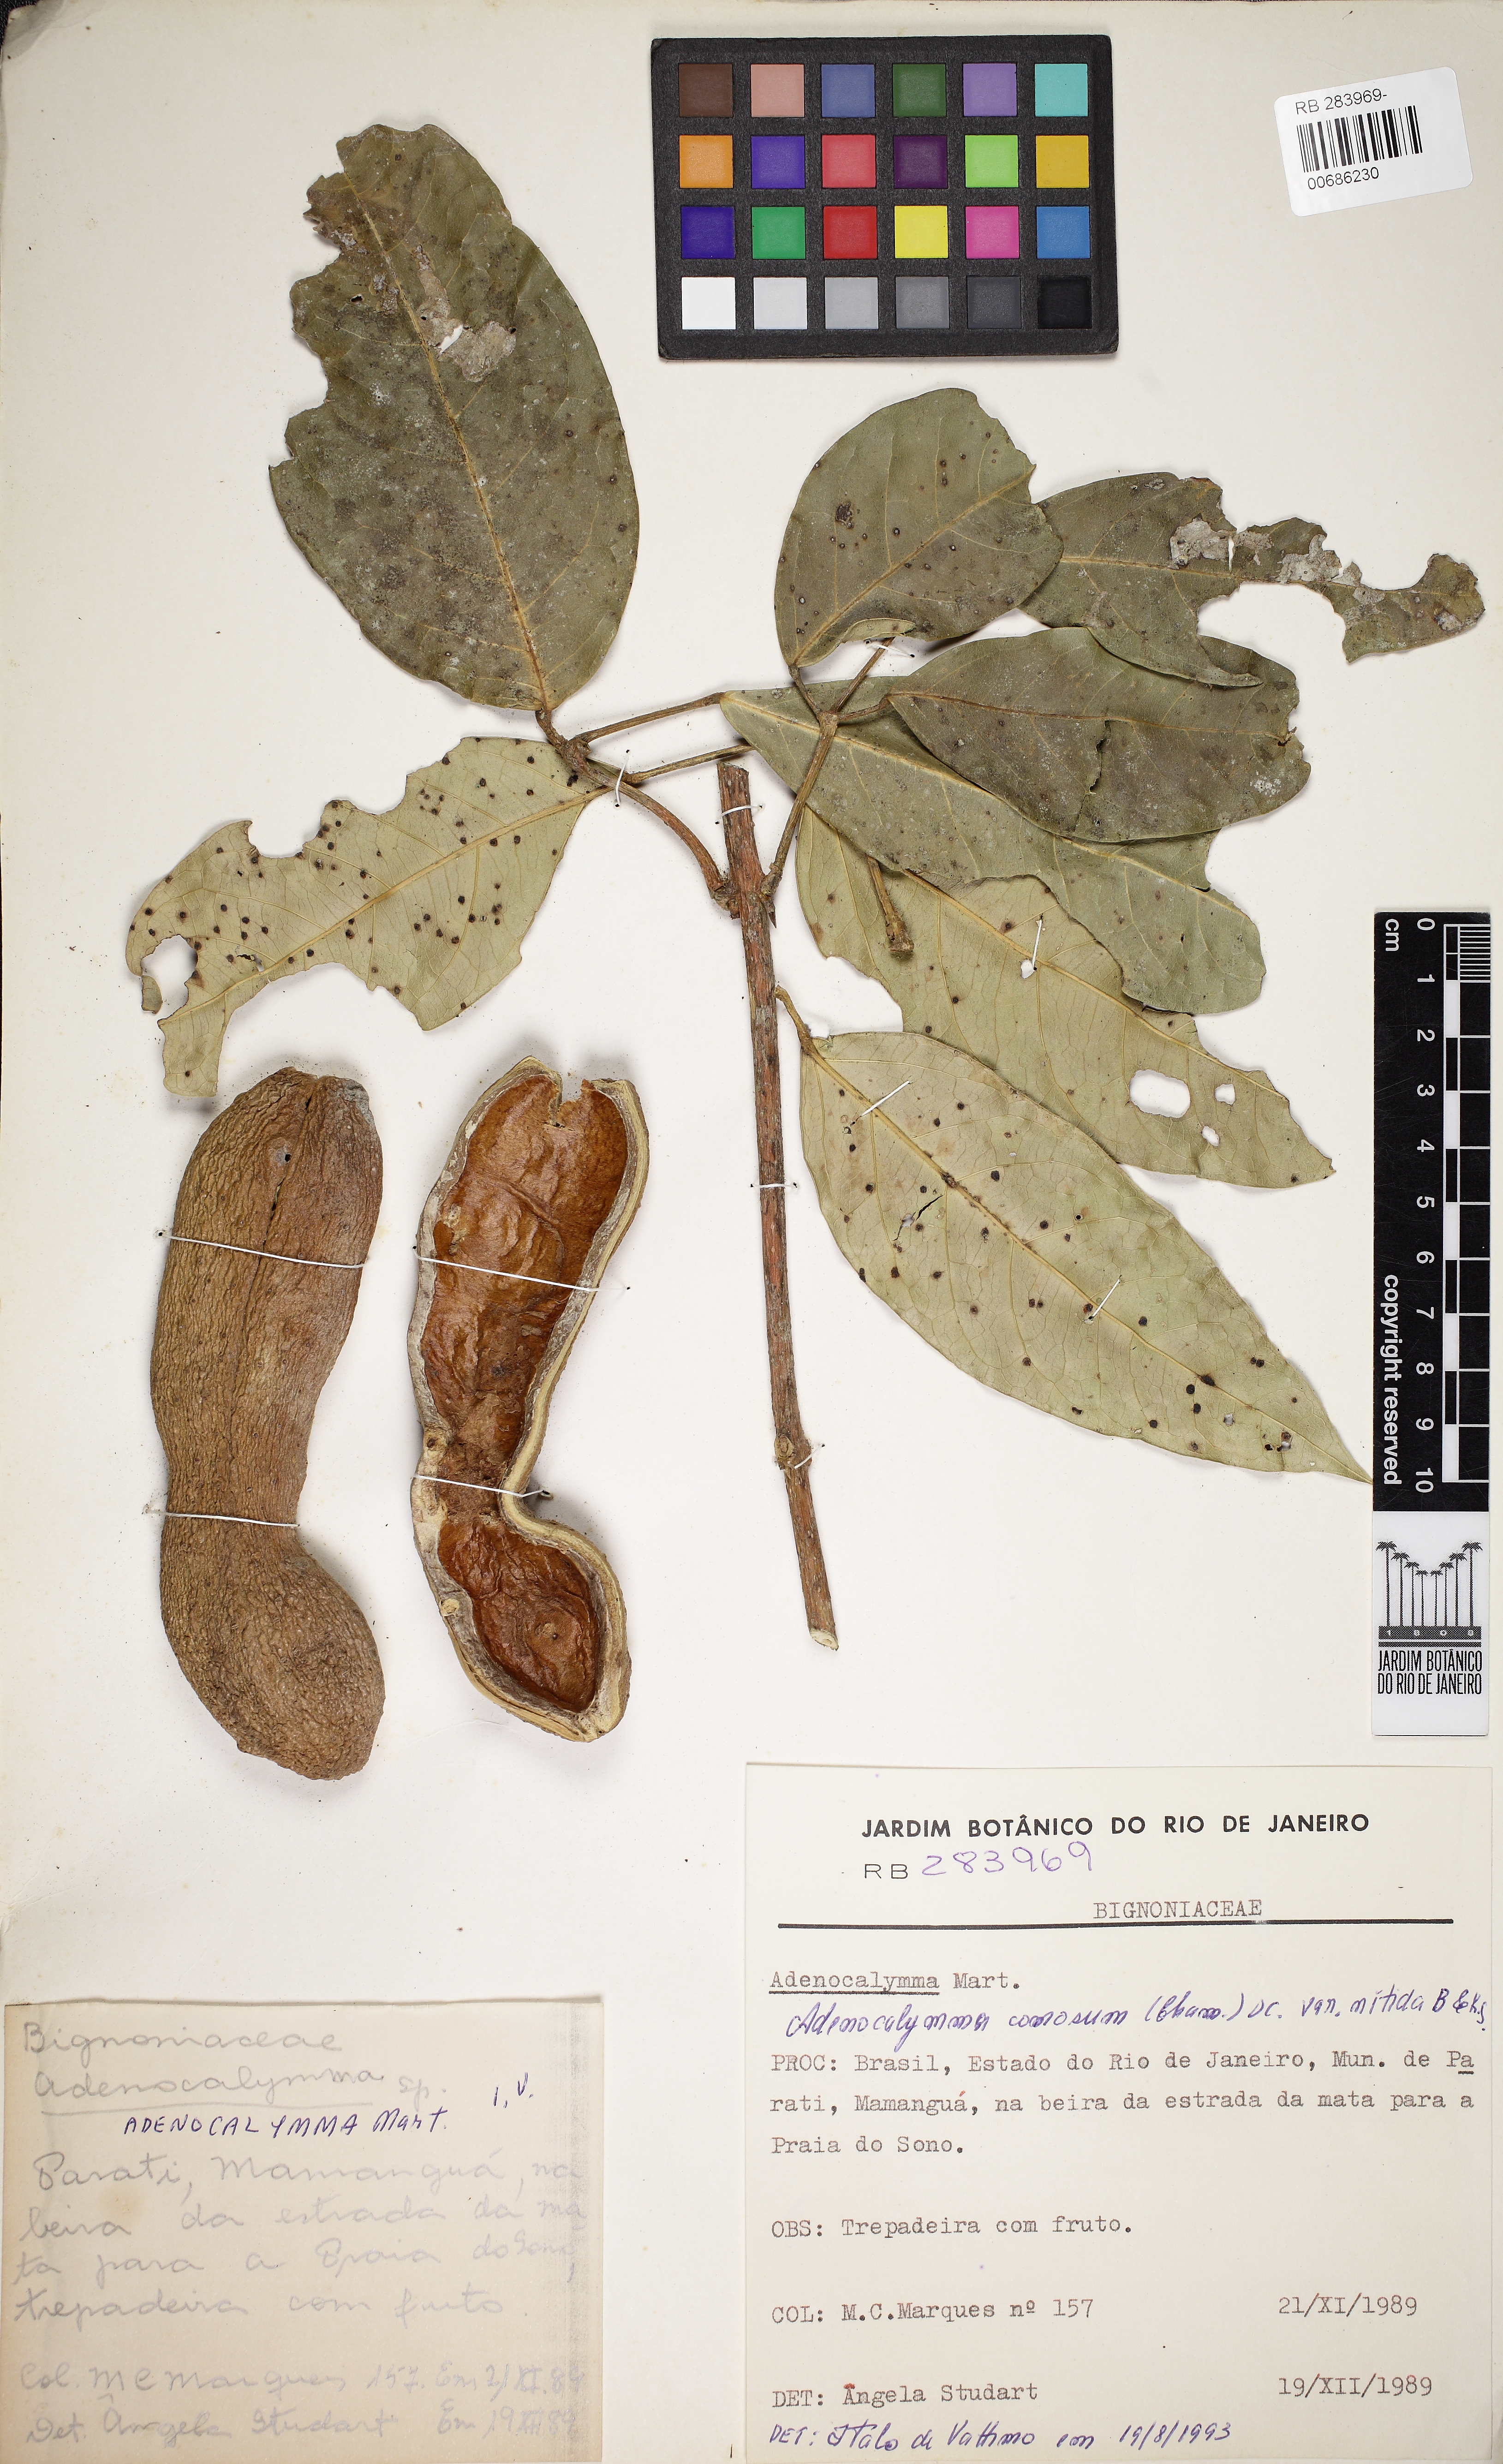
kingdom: Plantae
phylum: Tracheophyta
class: Magnoliopsida
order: Lamiales
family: Bignoniaceae
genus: Adenocalymma
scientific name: Adenocalymma acutissimum
